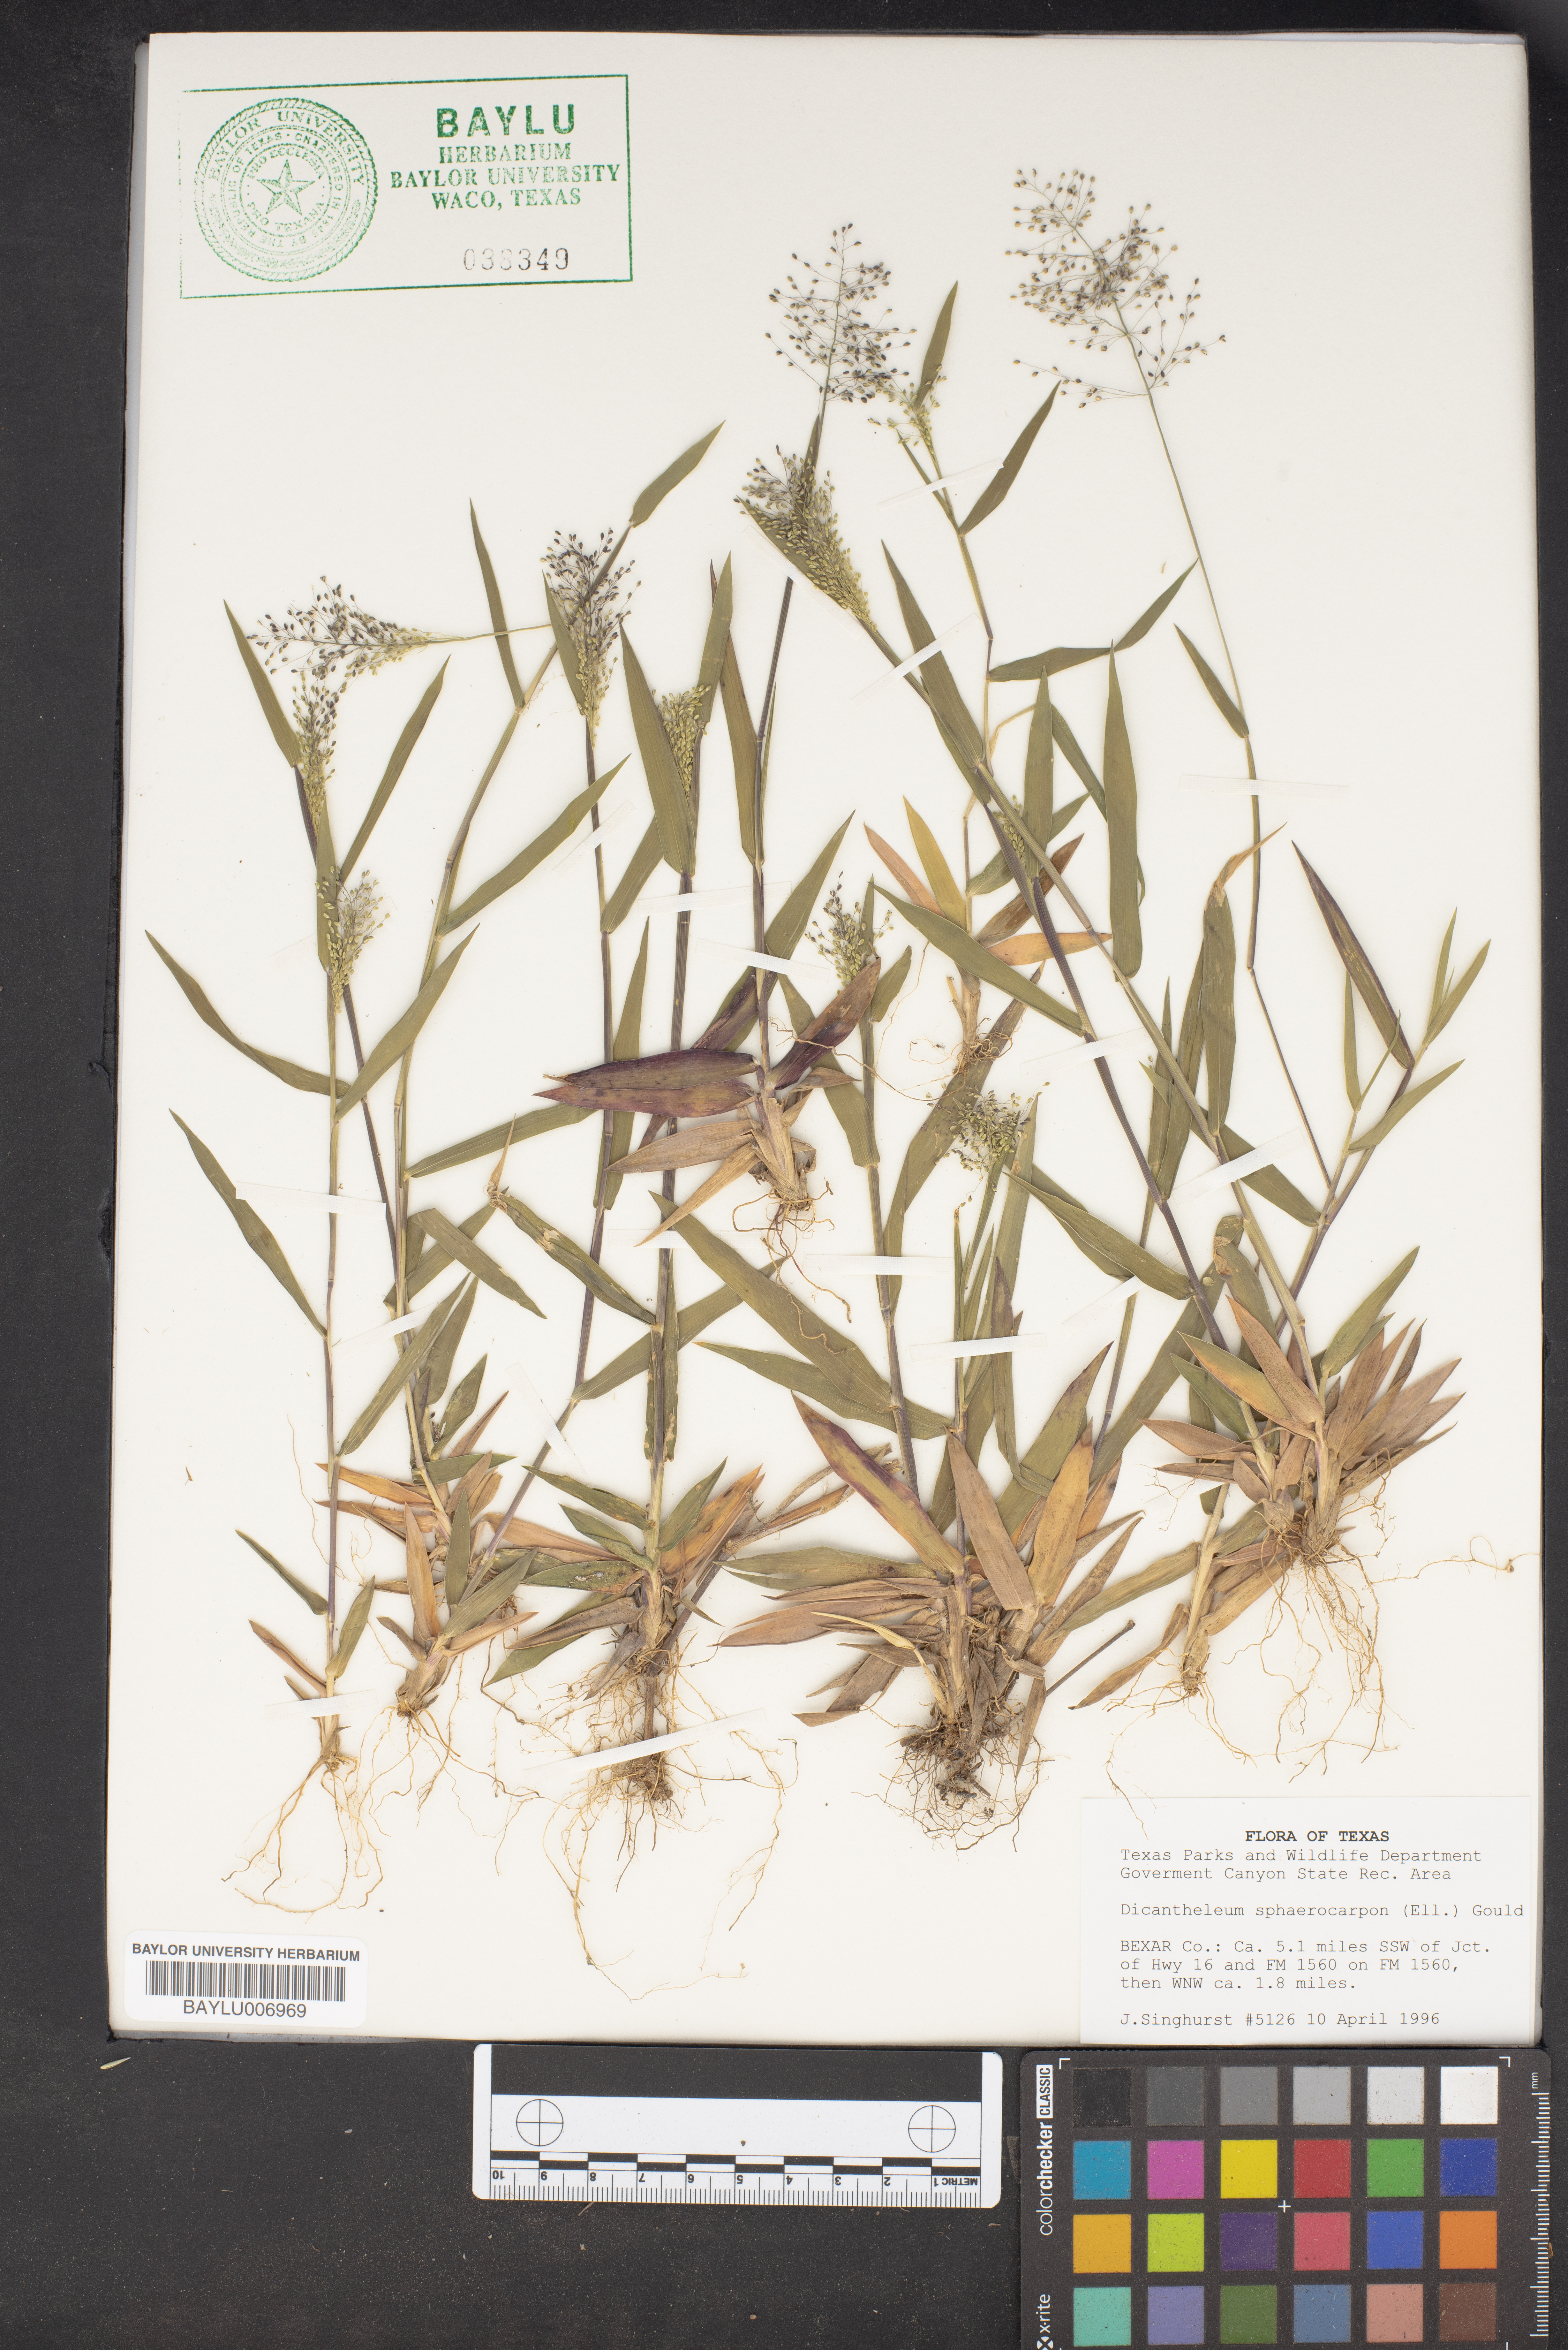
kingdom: Plantae
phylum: Tracheophyta
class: Liliopsida
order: Poales
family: Poaceae
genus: Dichanthelium
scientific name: Dichanthelium sphaerocarpon
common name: Round-fruited panicgrass
